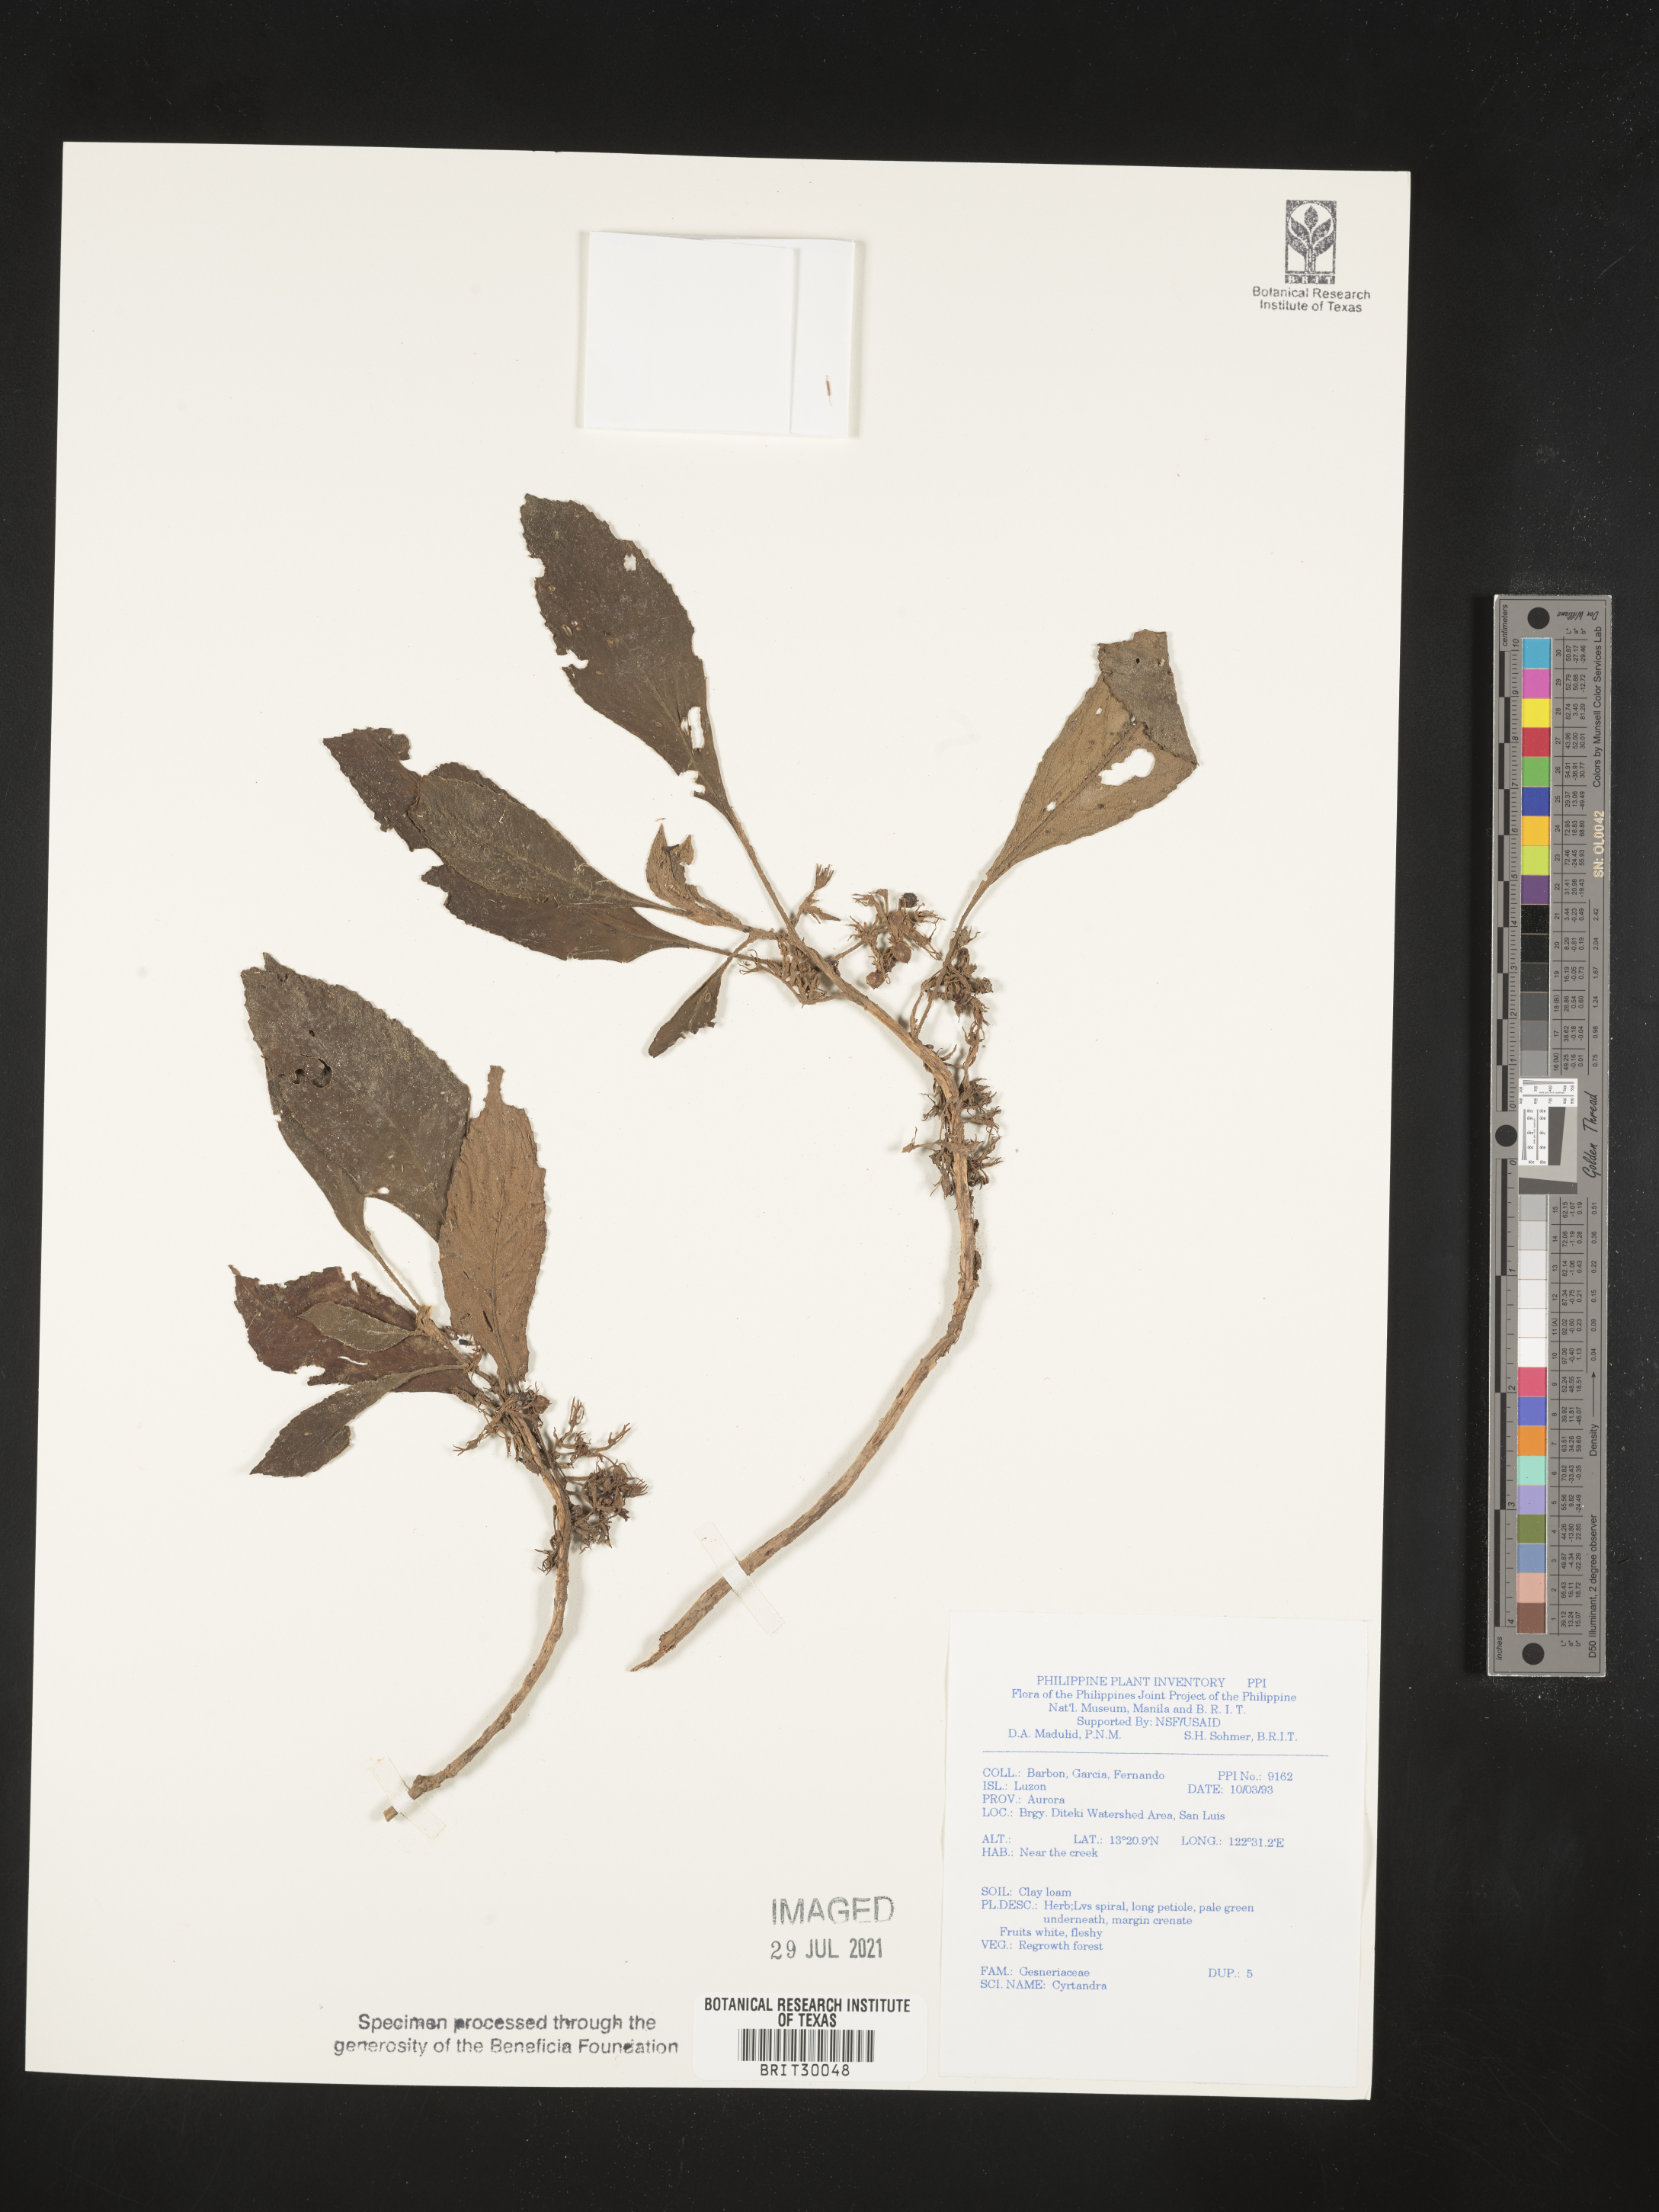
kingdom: Plantae
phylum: Tracheophyta
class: Magnoliopsida
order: Lamiales
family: Gesneriaceae
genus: Cyrtandra
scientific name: Cyrtandra
